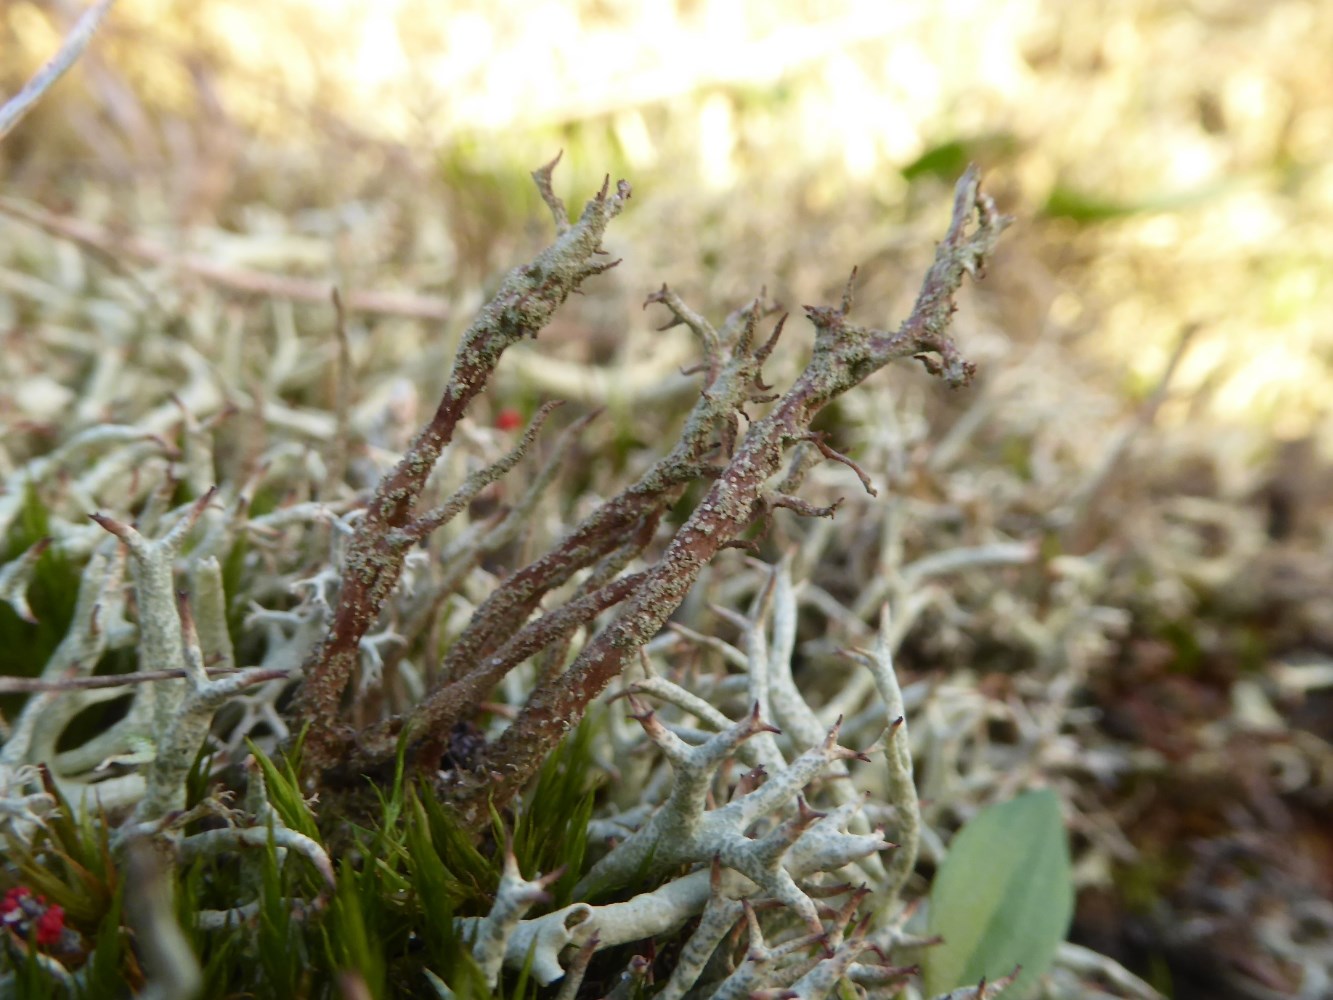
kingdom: Fungi
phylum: Ascomycota
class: Lecanoromycetes
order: Lecanorales
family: Cladoniaceae
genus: Cladonia
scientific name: Cladonia furcata
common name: kløftet bægerlav
